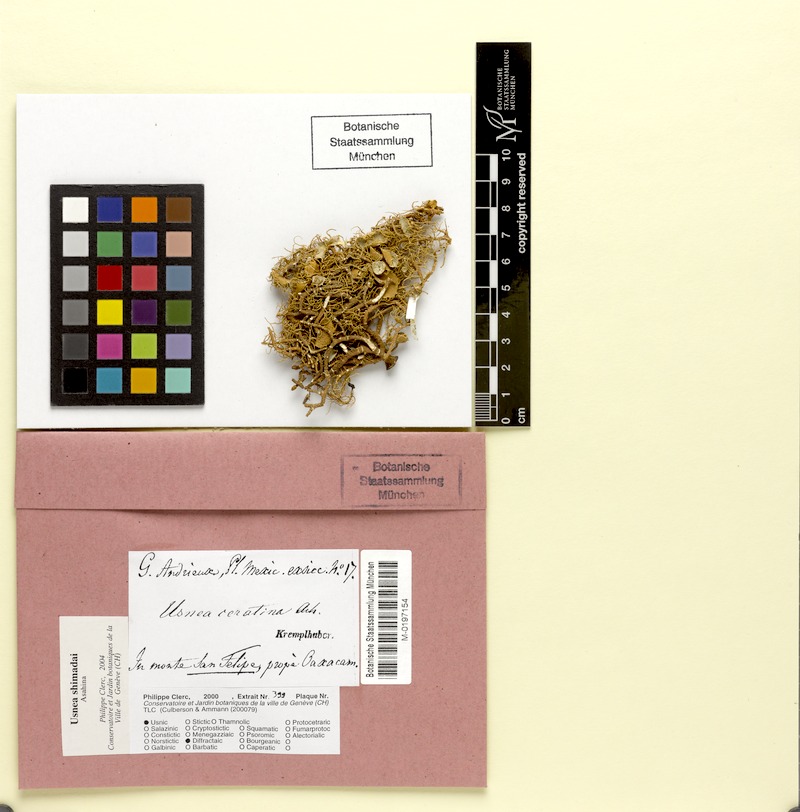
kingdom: Fungi
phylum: Ascomycota
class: Lecanoromycetes
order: Lecanorales
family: Parmeliaceae
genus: Usnea
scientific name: Usnea shimadai
